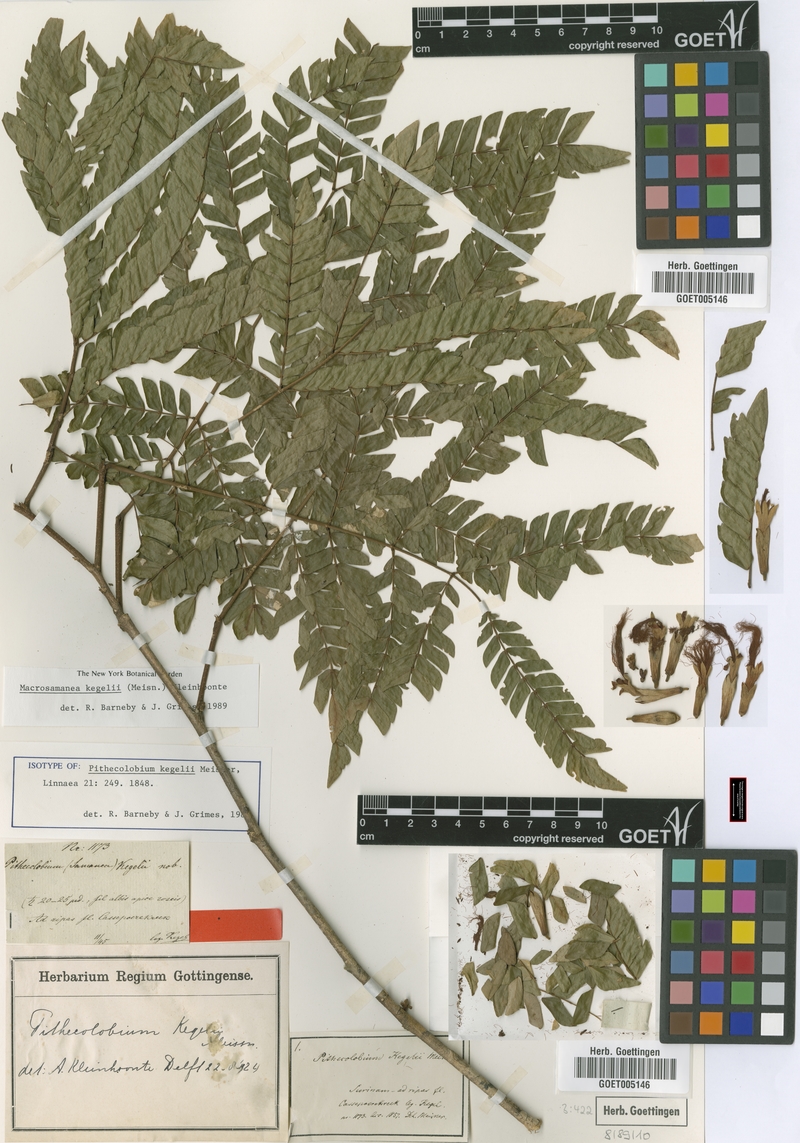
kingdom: Plantae
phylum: Tracheophyta
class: Magnoliopsida
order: Fabales
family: Fabaceae
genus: Macrosamanea
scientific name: Macrosamanea kegelii
